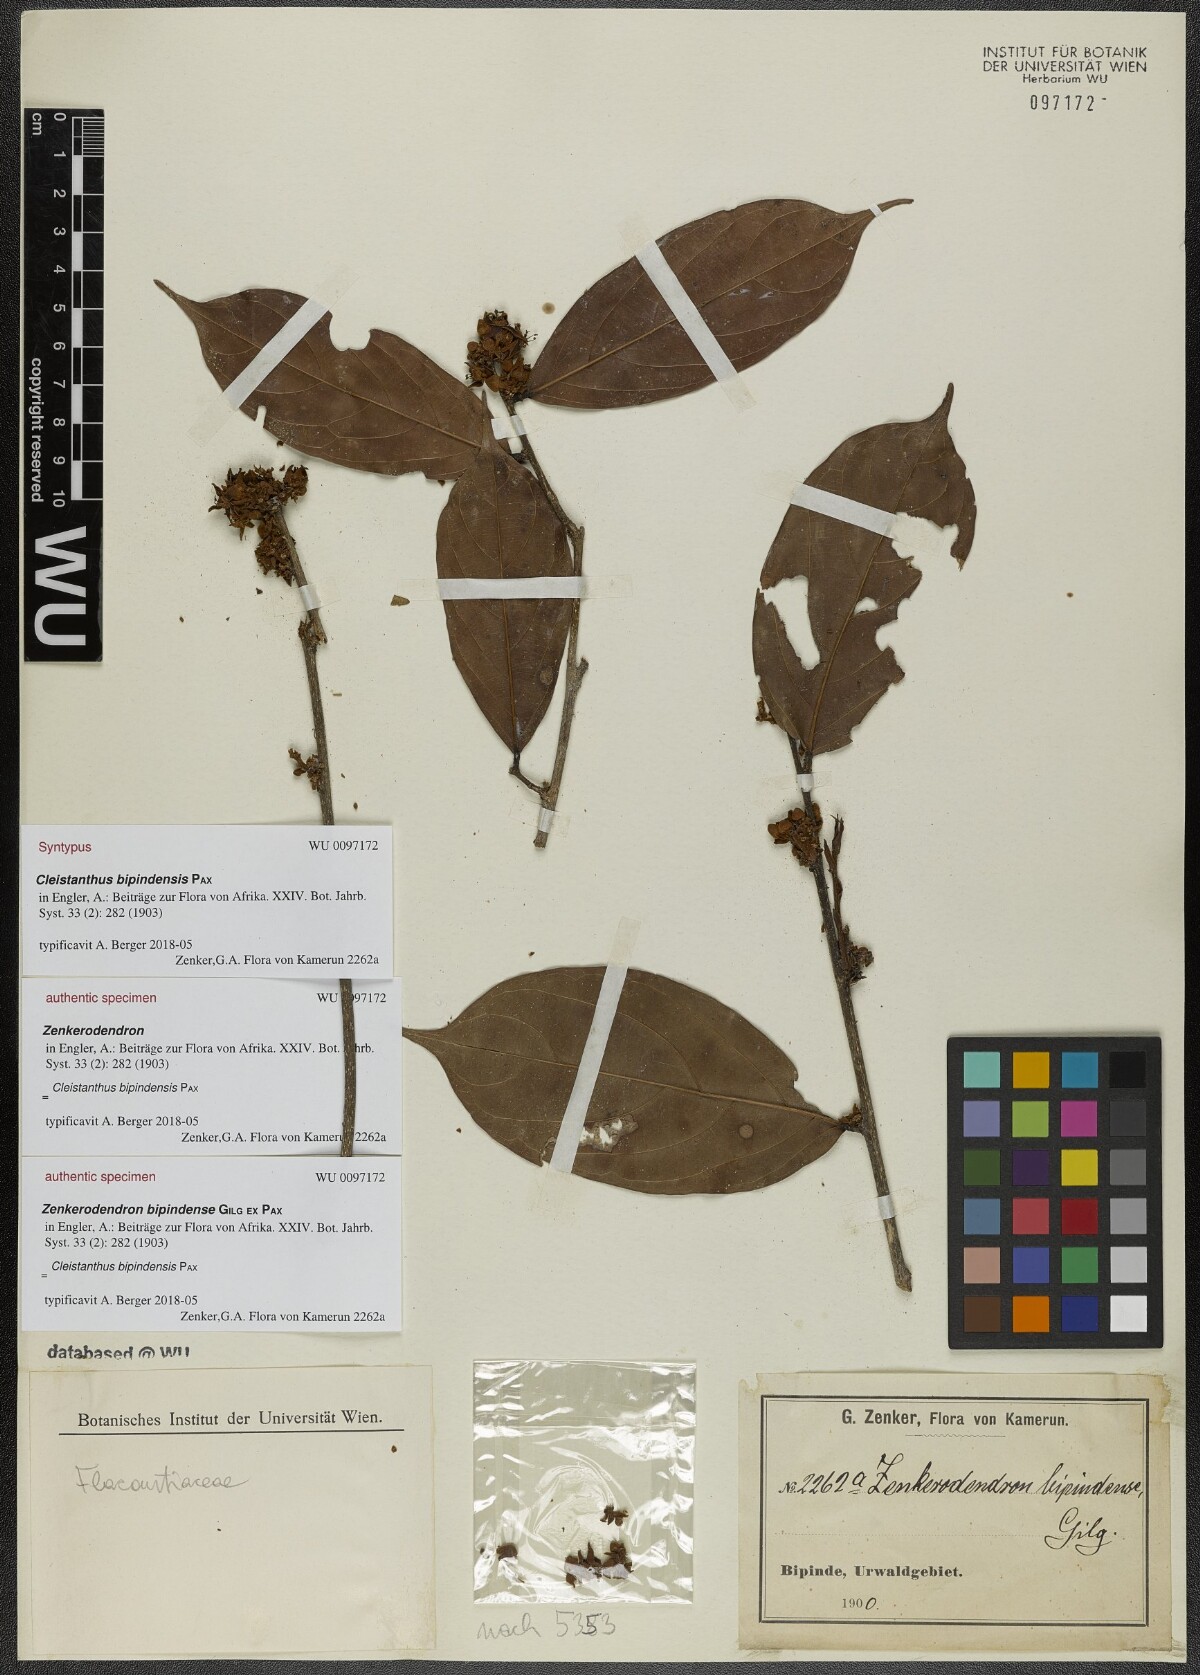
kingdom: Plantae
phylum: Tracheophyta
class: Magnoliopsida
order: Malpighiales
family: Phyllanthaceae
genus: Cleistanthus
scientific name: Cleistanthus bipindensis
